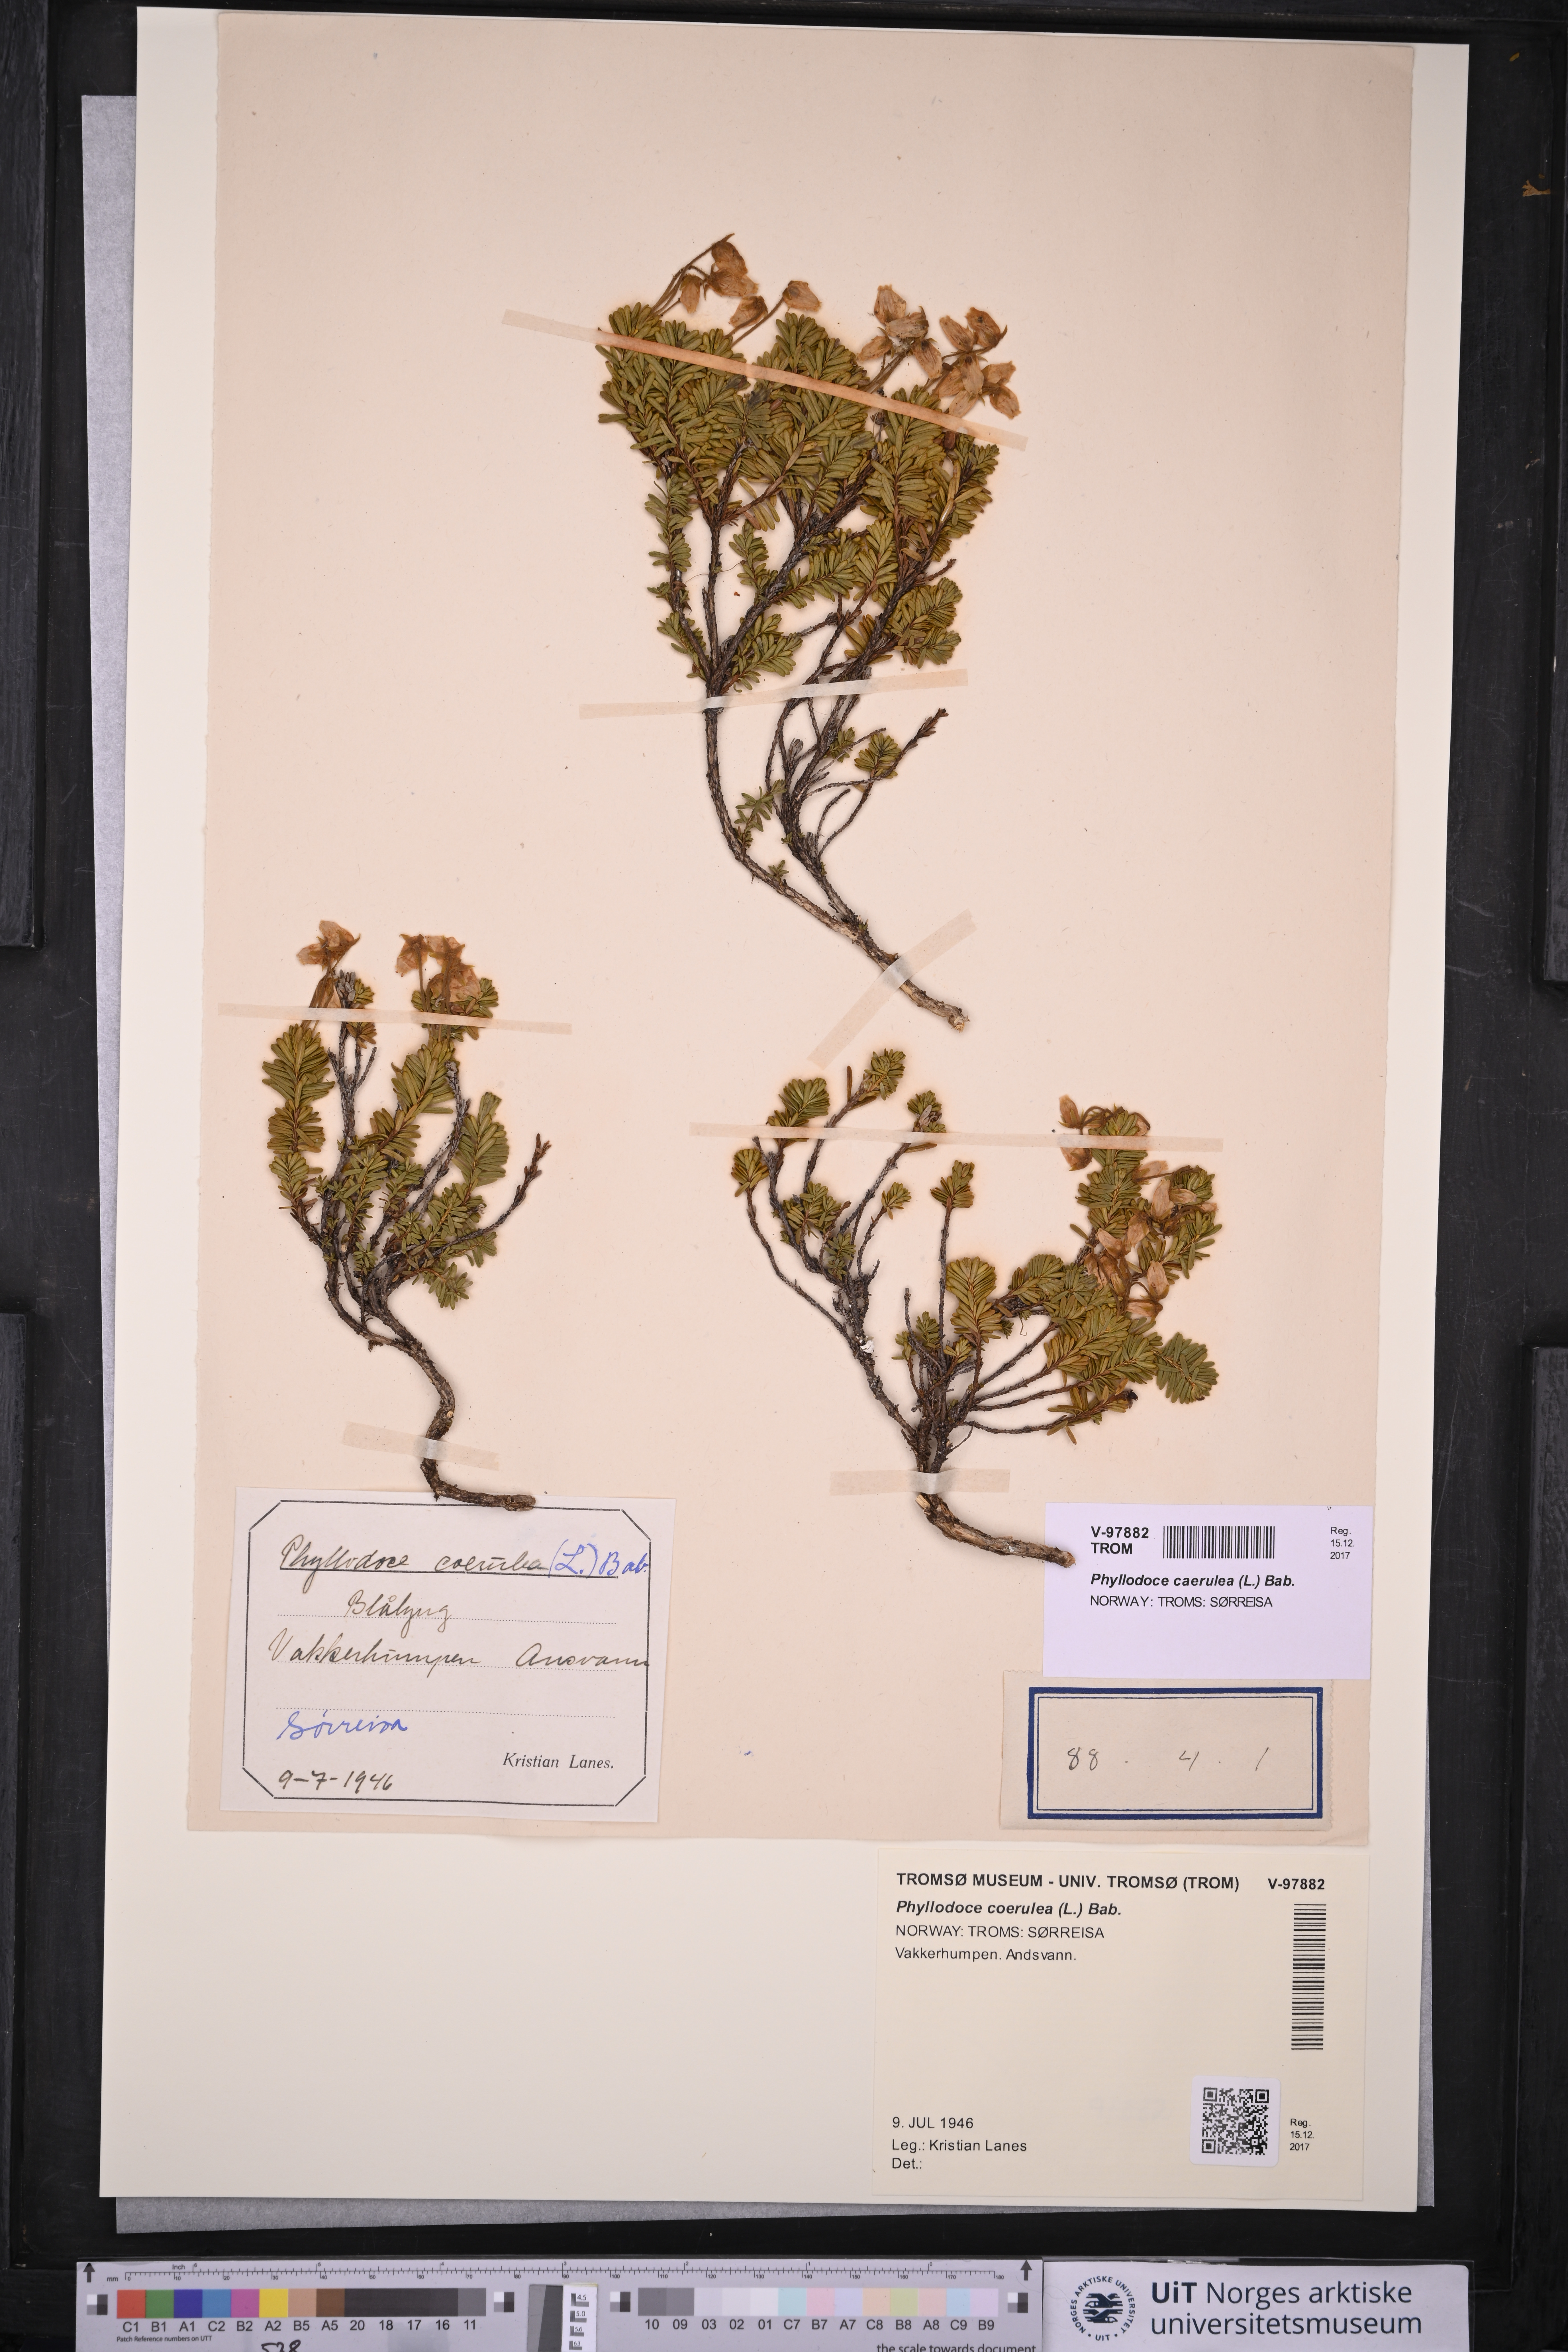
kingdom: Plantae
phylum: Tracheophyta
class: Magnoliopsida
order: Ericales
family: Ericaceae
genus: Phyllodoce
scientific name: Phyllodoce caerulea
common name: Blue heath
